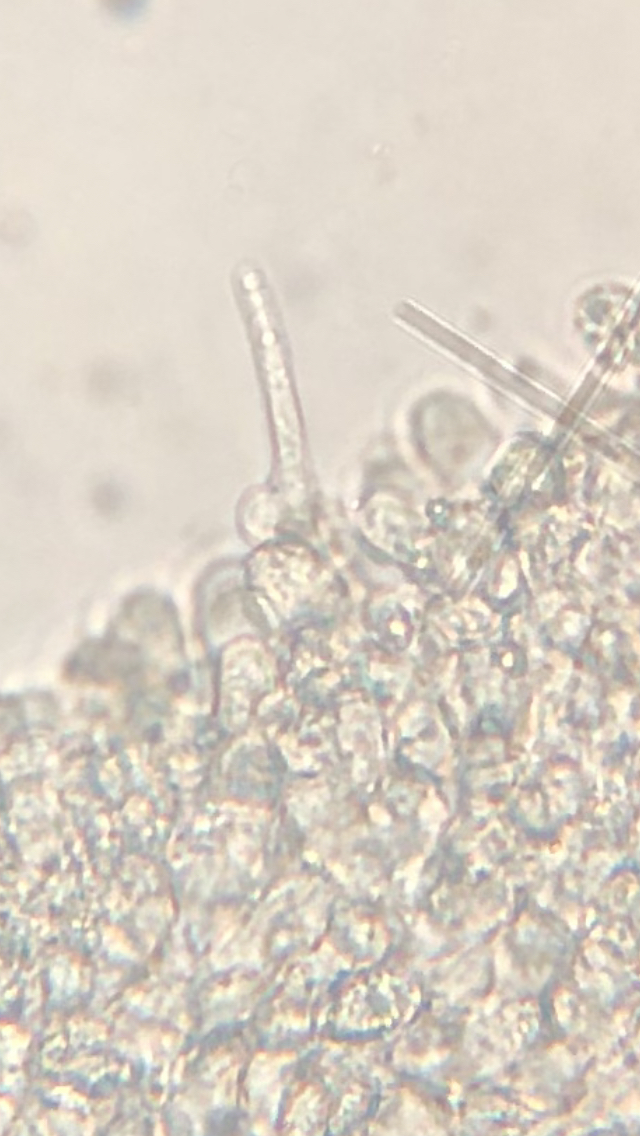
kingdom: Fungi
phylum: Basidiomycota
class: Agaricomycetes
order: Agaricales
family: Tricholomataceae
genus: Melanoleuca
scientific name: Melanoleuca
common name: munkehat
